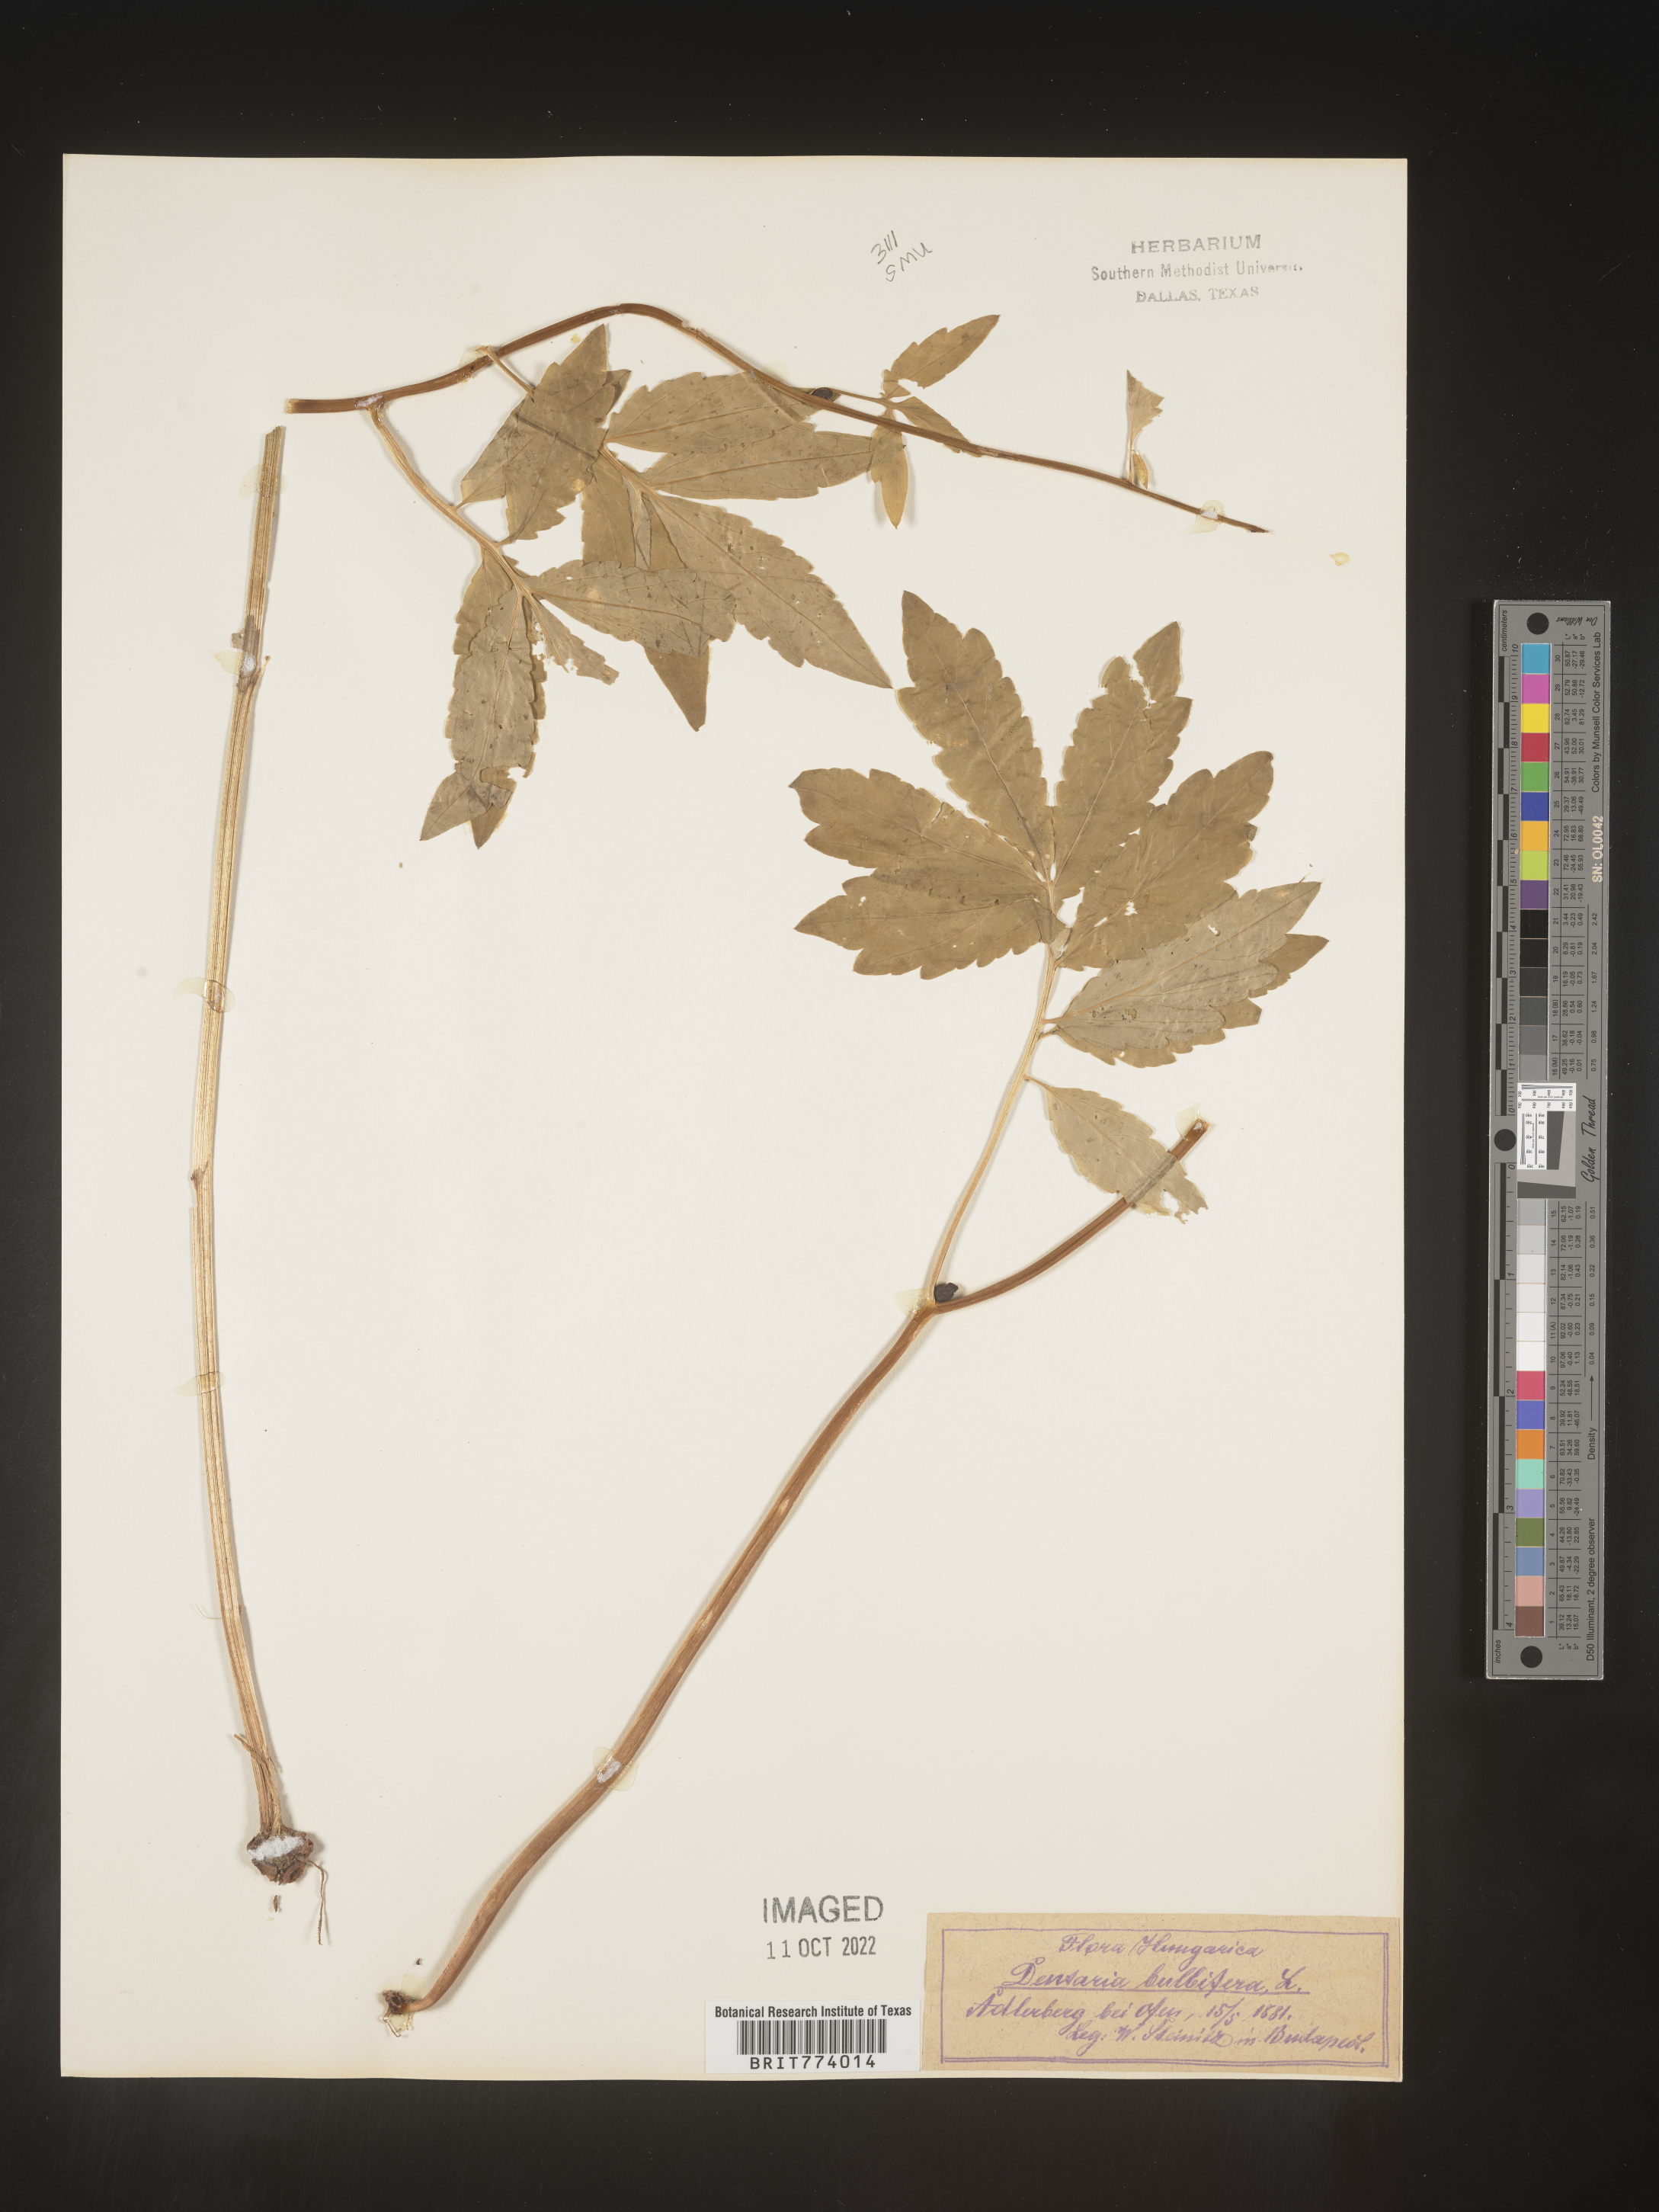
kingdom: Plantae
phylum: Tracheophyta
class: Magnoliopsida
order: Brassicales
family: Brassicaceae
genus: Cardamine
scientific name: Cardamine
